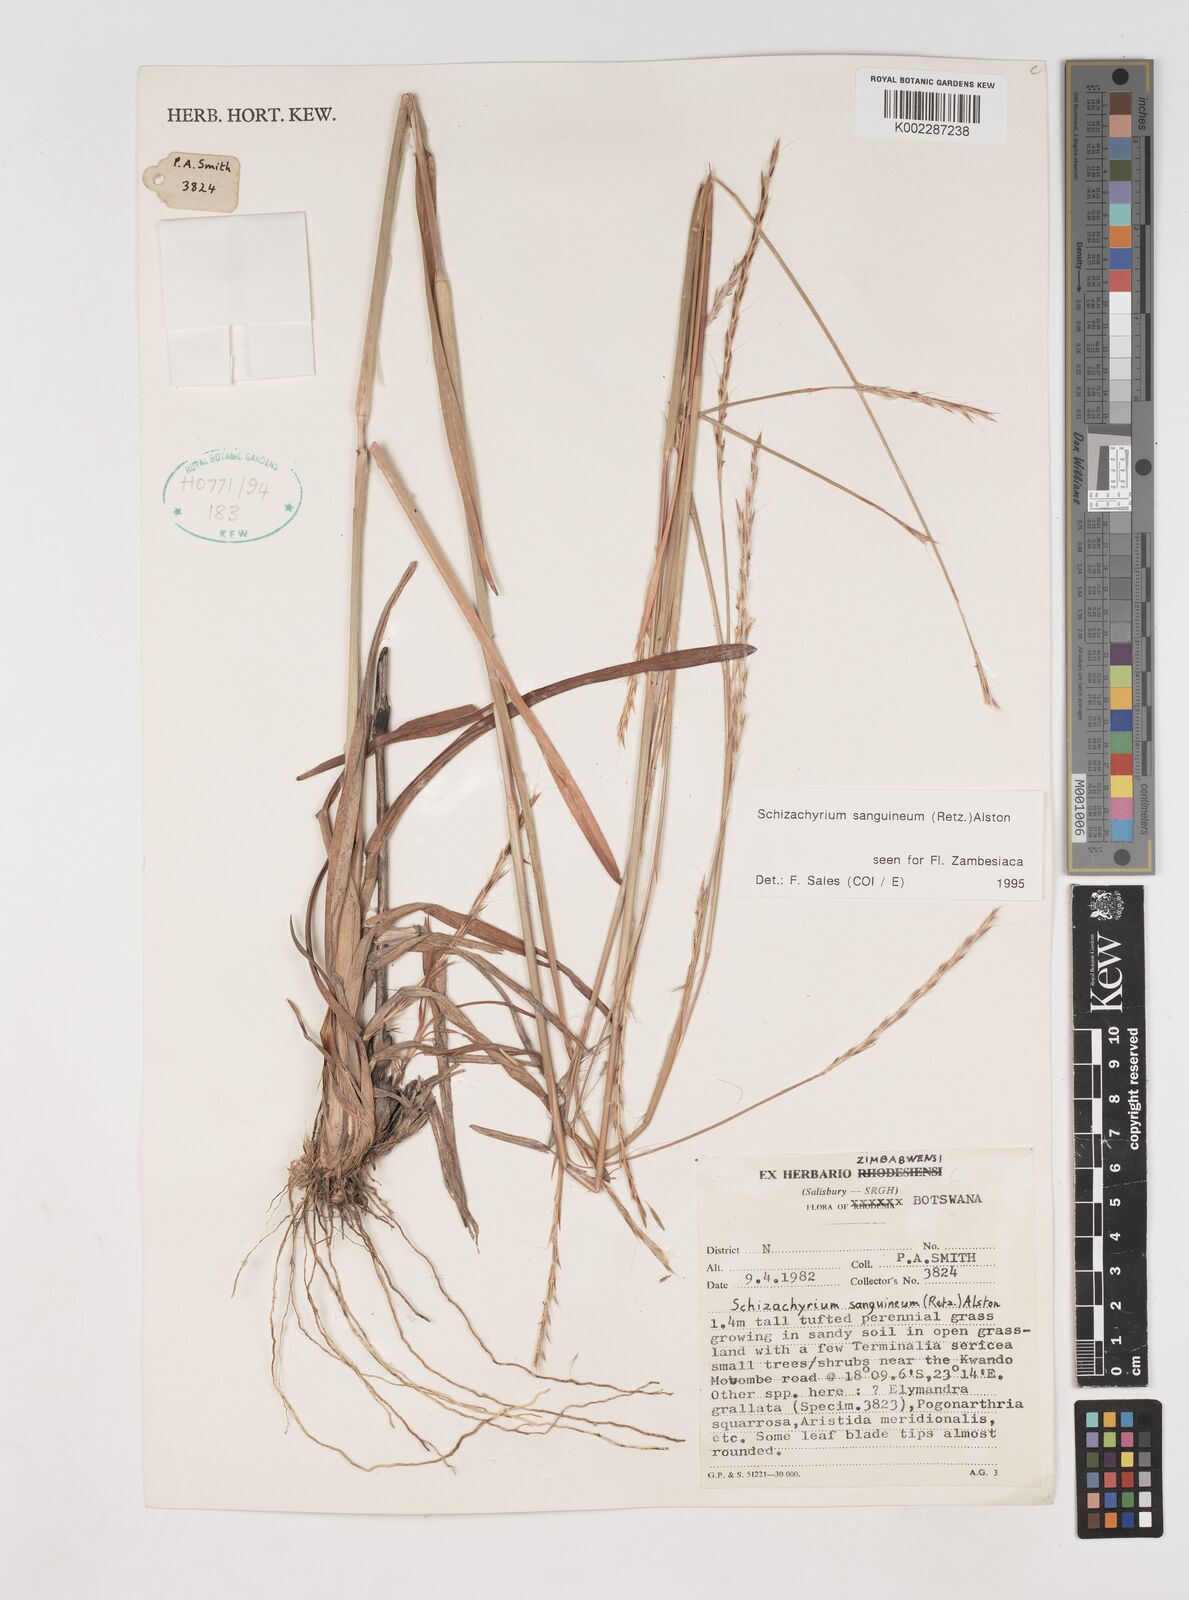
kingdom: Plantae
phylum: Tracheophyta
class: Liliopsida
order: Poales
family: Poaceae
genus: Schizachyrium
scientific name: Schizachyrium sanguineum
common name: Crimson bluestem
